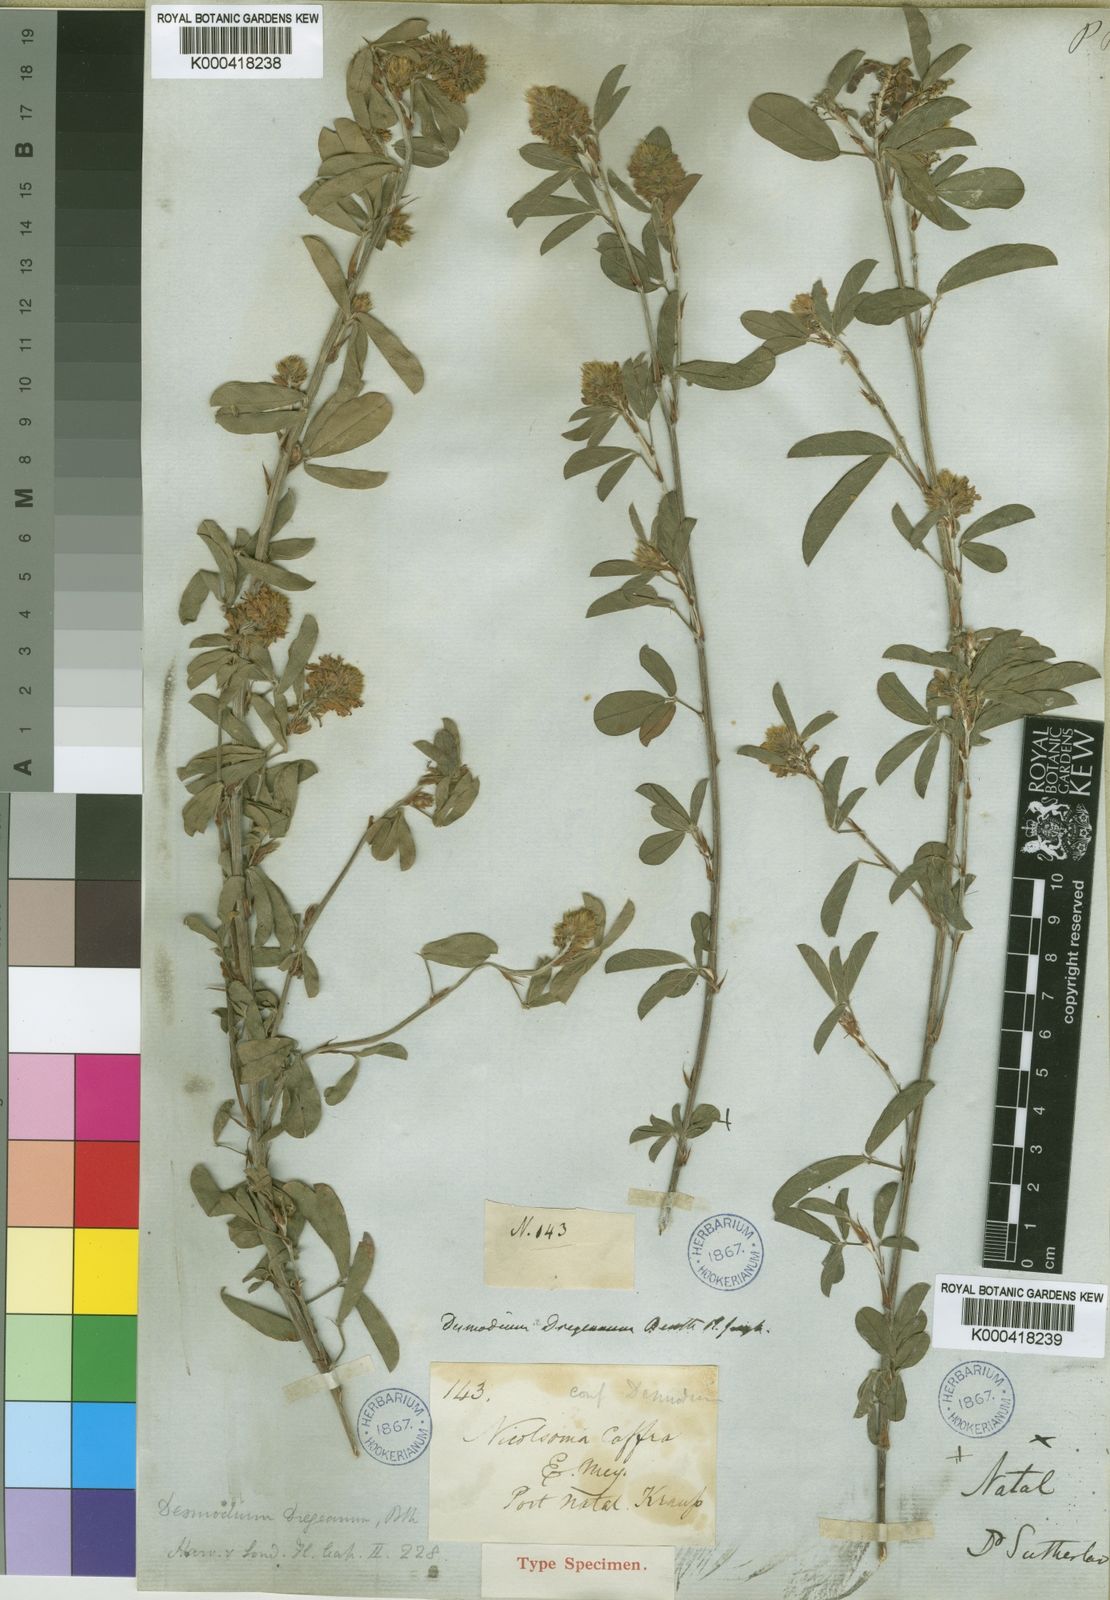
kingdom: Plantae
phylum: Tracheophyta
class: Magnoliopsida
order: Fabales
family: Fabaceae
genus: Grona
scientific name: Grona caffra
